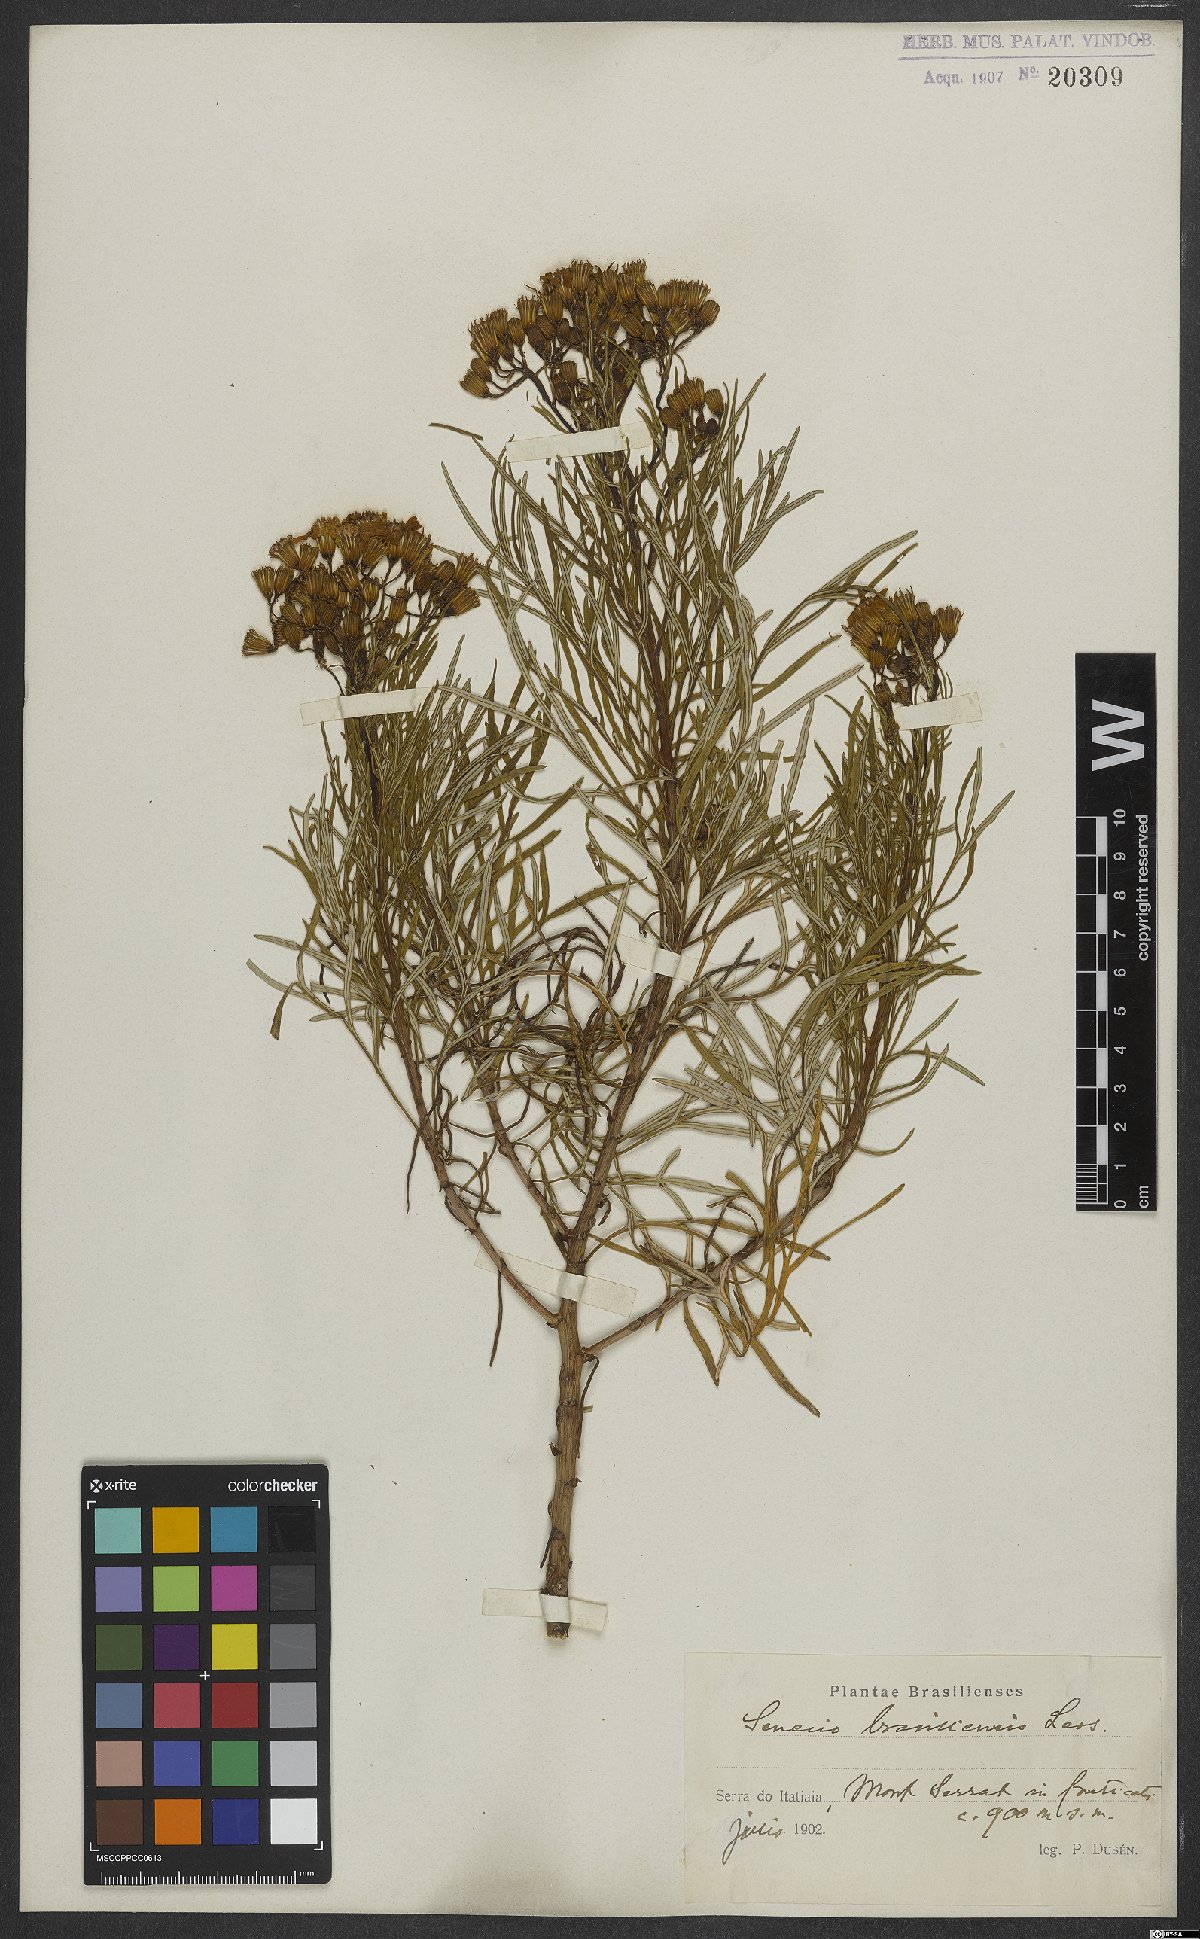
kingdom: Plantae
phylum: Tracheophyta
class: Magnoliopsida
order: Asterales
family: Asteraceae
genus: Senecio
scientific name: Senecio brasiliensis
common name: Hemp-leaf ragwort
